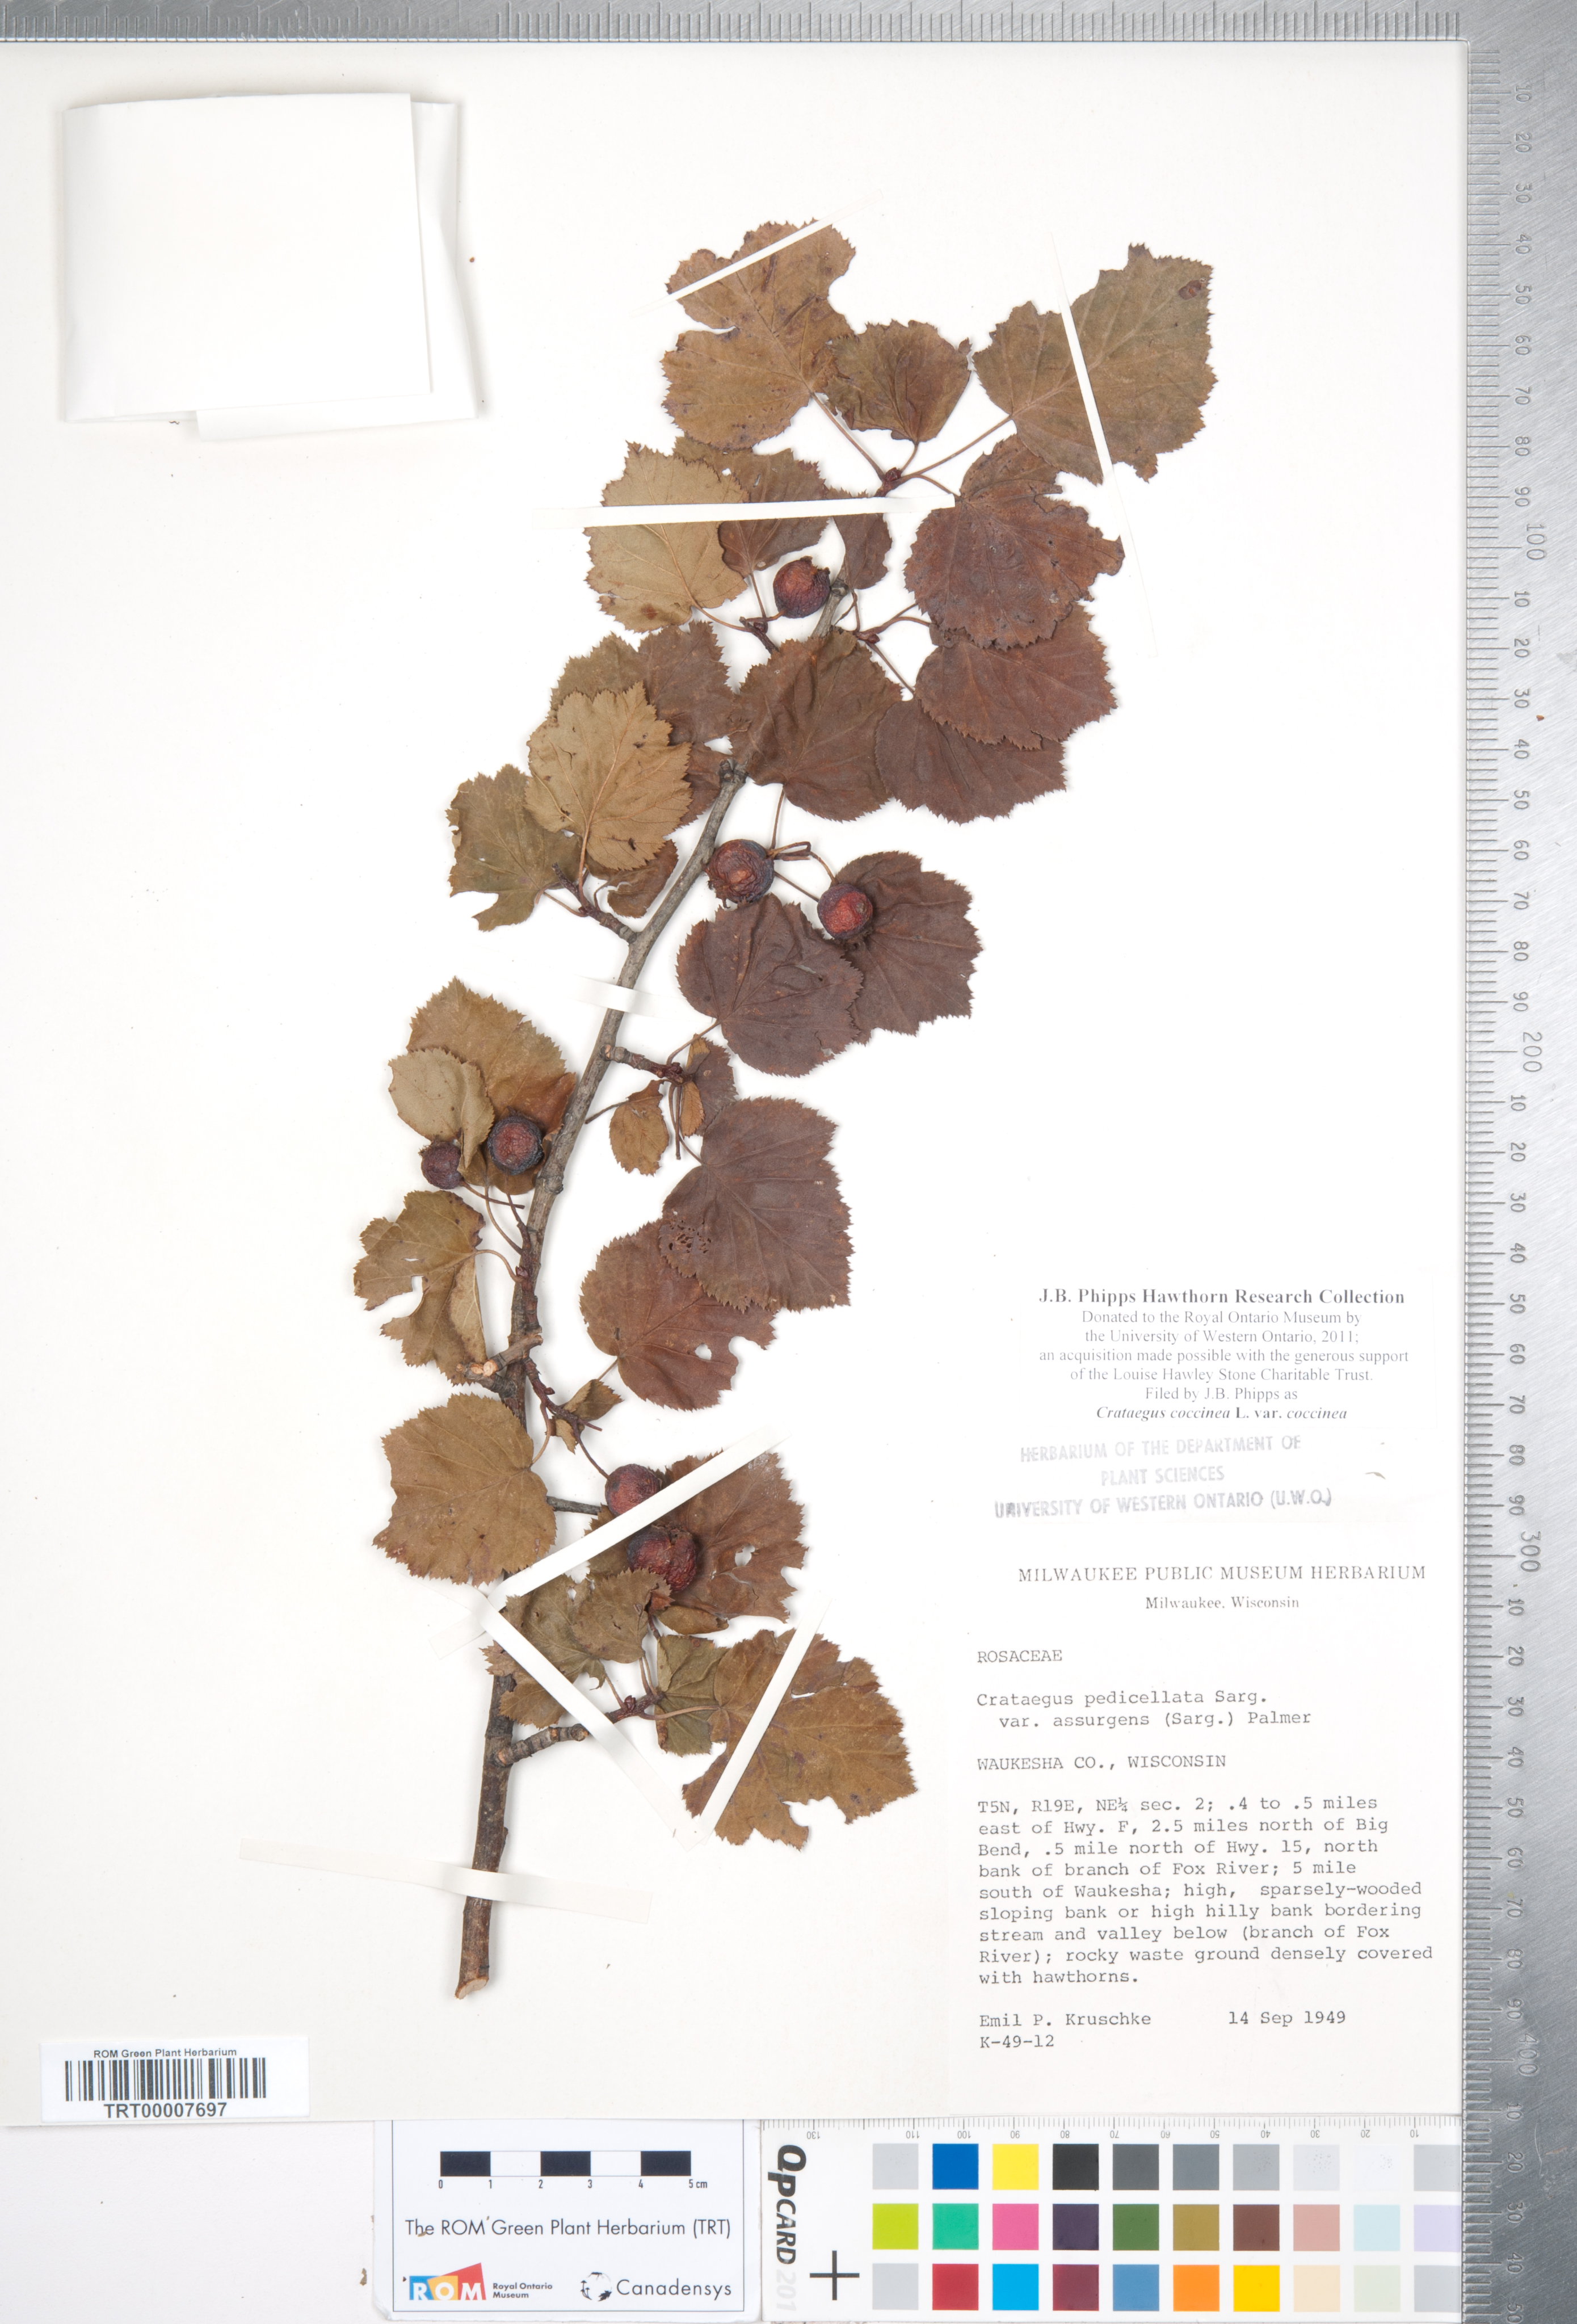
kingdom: Plantae
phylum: Tracheophyta
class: Magnoliopsida
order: Rosales
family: Rosaceae
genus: Crataegus
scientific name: Crataegus coccinea
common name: Scarlet hawthorn
